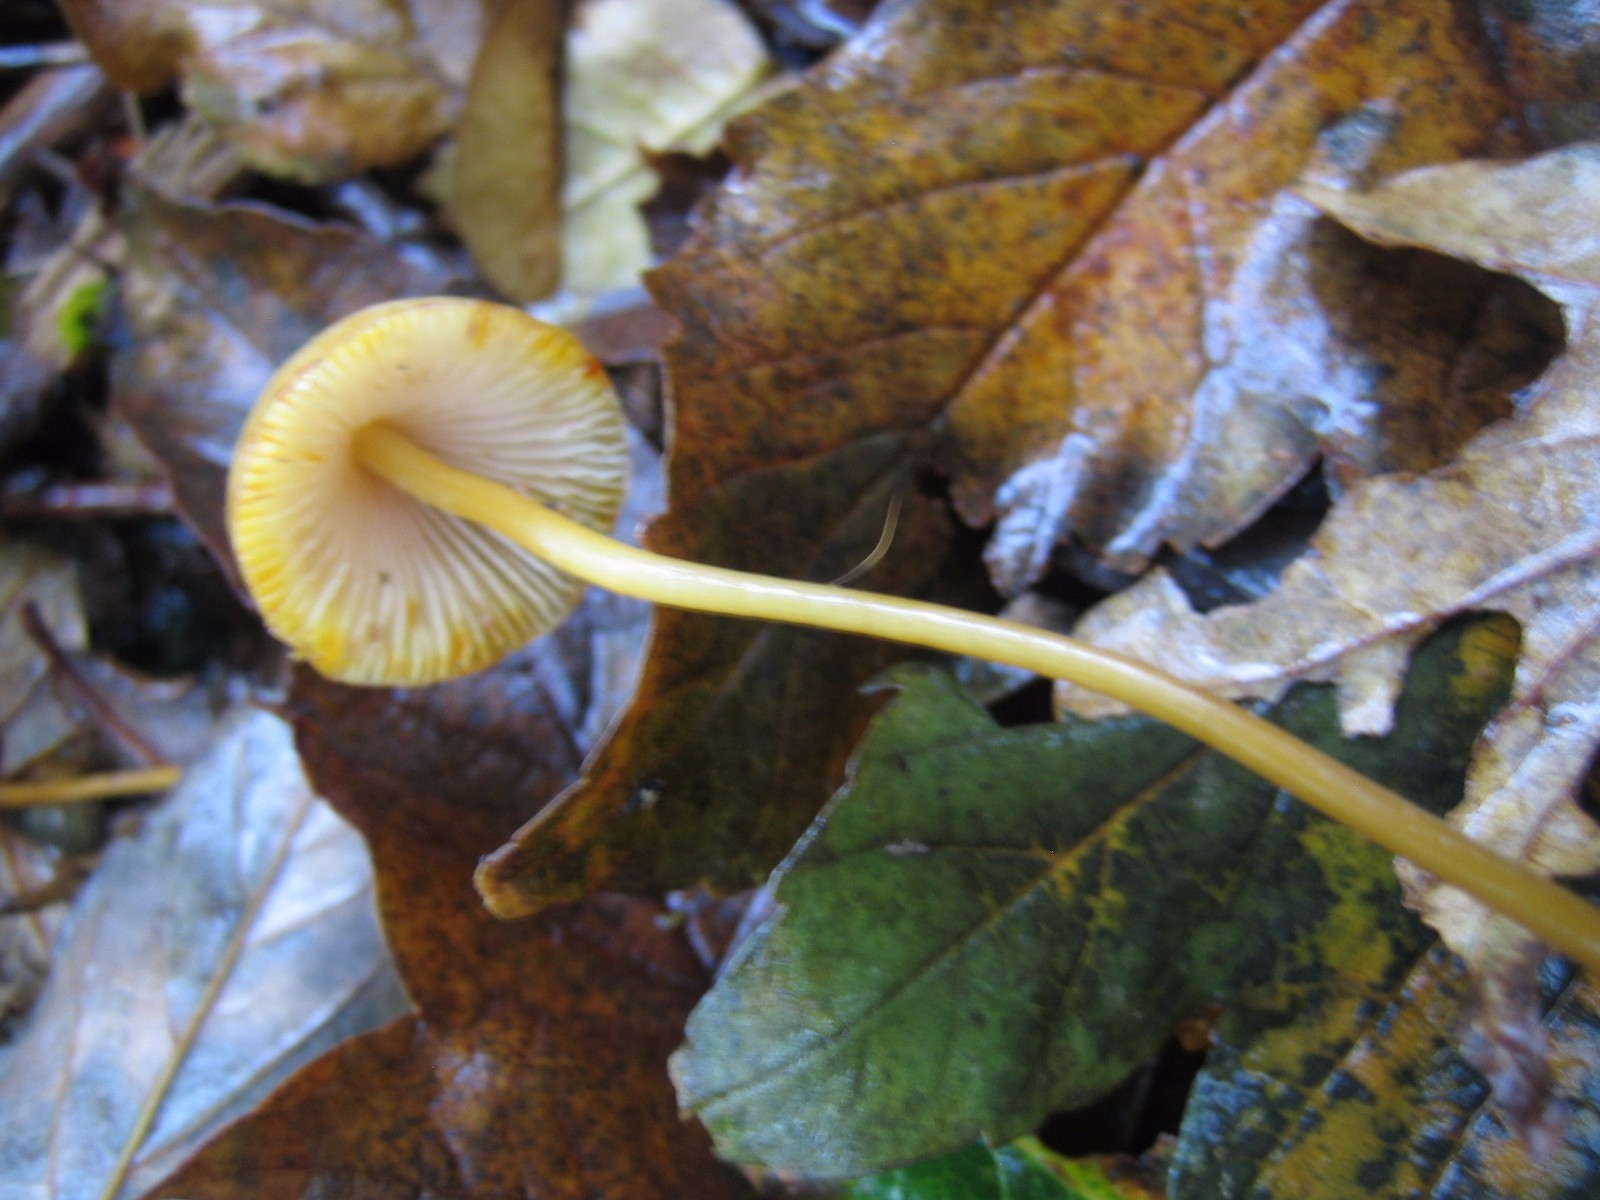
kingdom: Fungi
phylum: Basidiomycota
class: Agaricomycetes
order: Agaricales
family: Mycenaceae
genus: Mycena
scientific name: Mycena crocata
